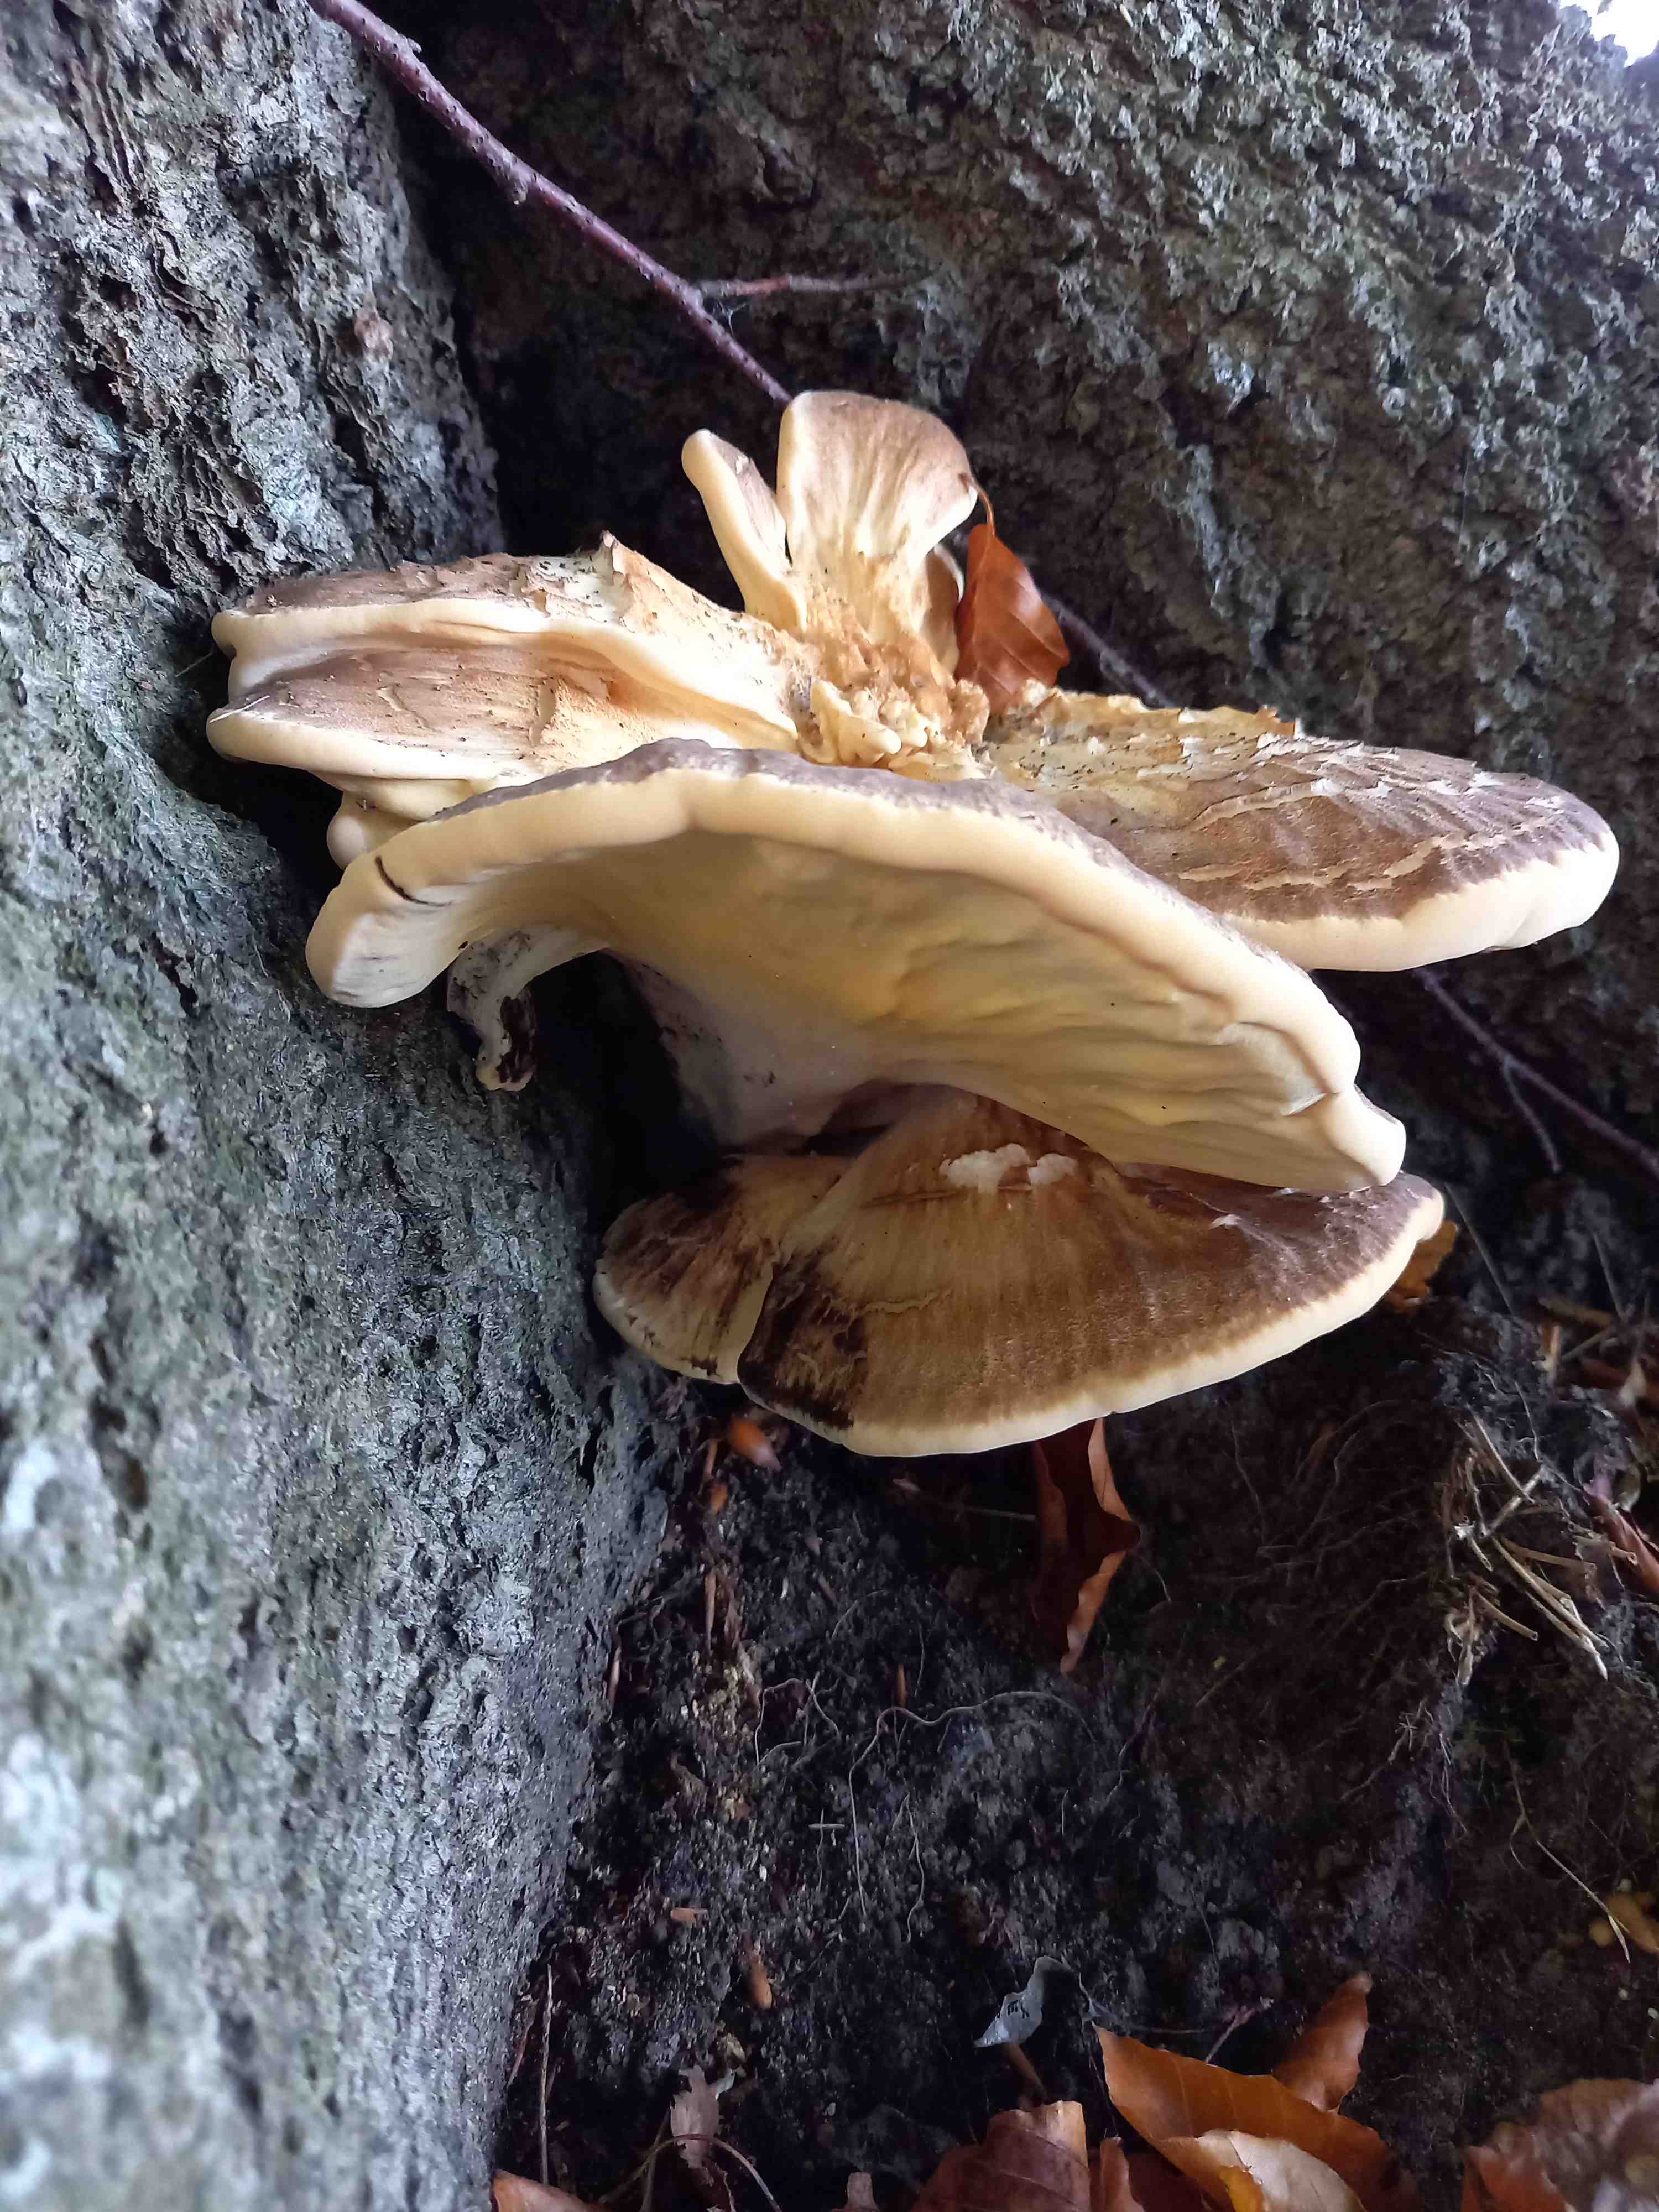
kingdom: Fungi
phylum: Basidiomycota
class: Agaricomycetes
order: Polyporales
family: Meripilaceae
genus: Meripilus
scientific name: Meripilus giganteus
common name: kæmpeporesvamp
